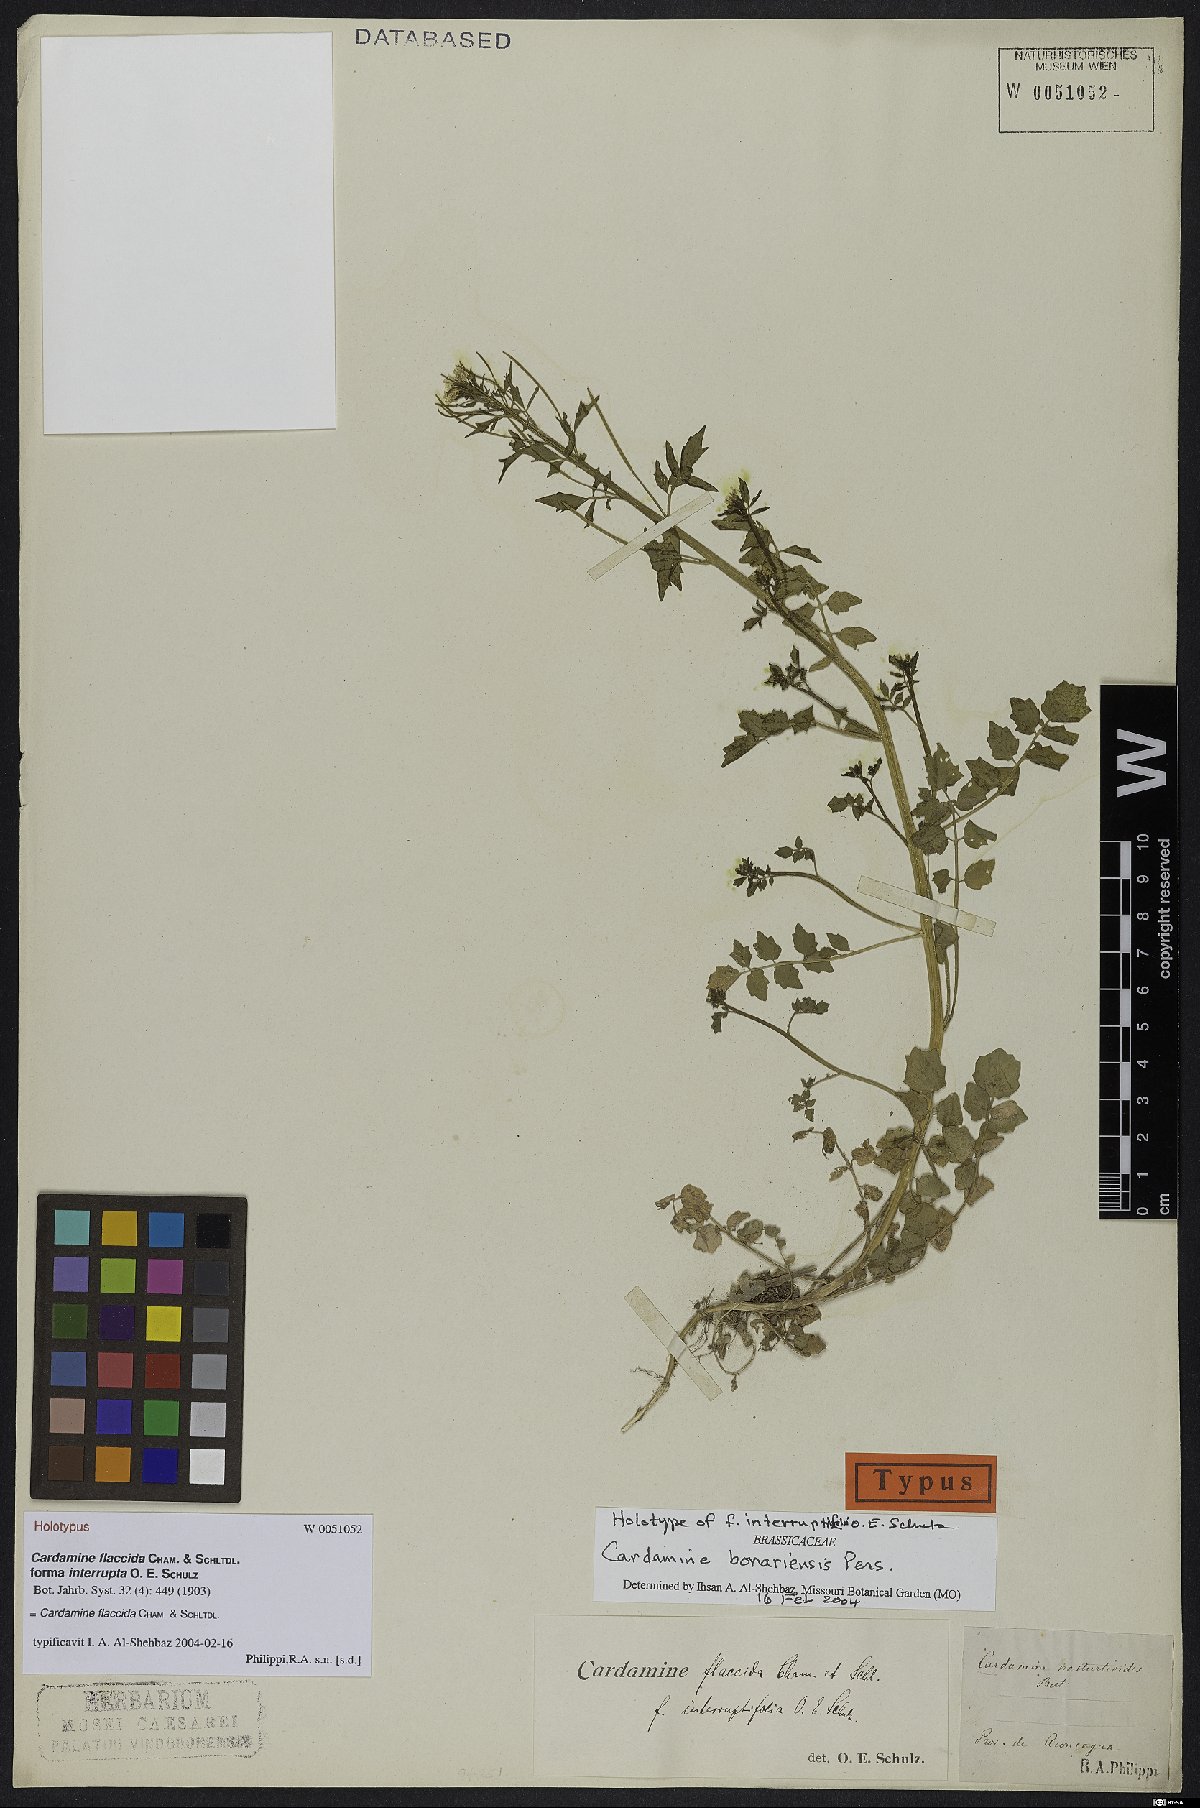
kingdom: Plantae
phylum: Tracheophyta
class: Magnoliopsida
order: Brassicales
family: Brassicaceae
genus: Cardamine
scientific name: Cardamine bonariensis
